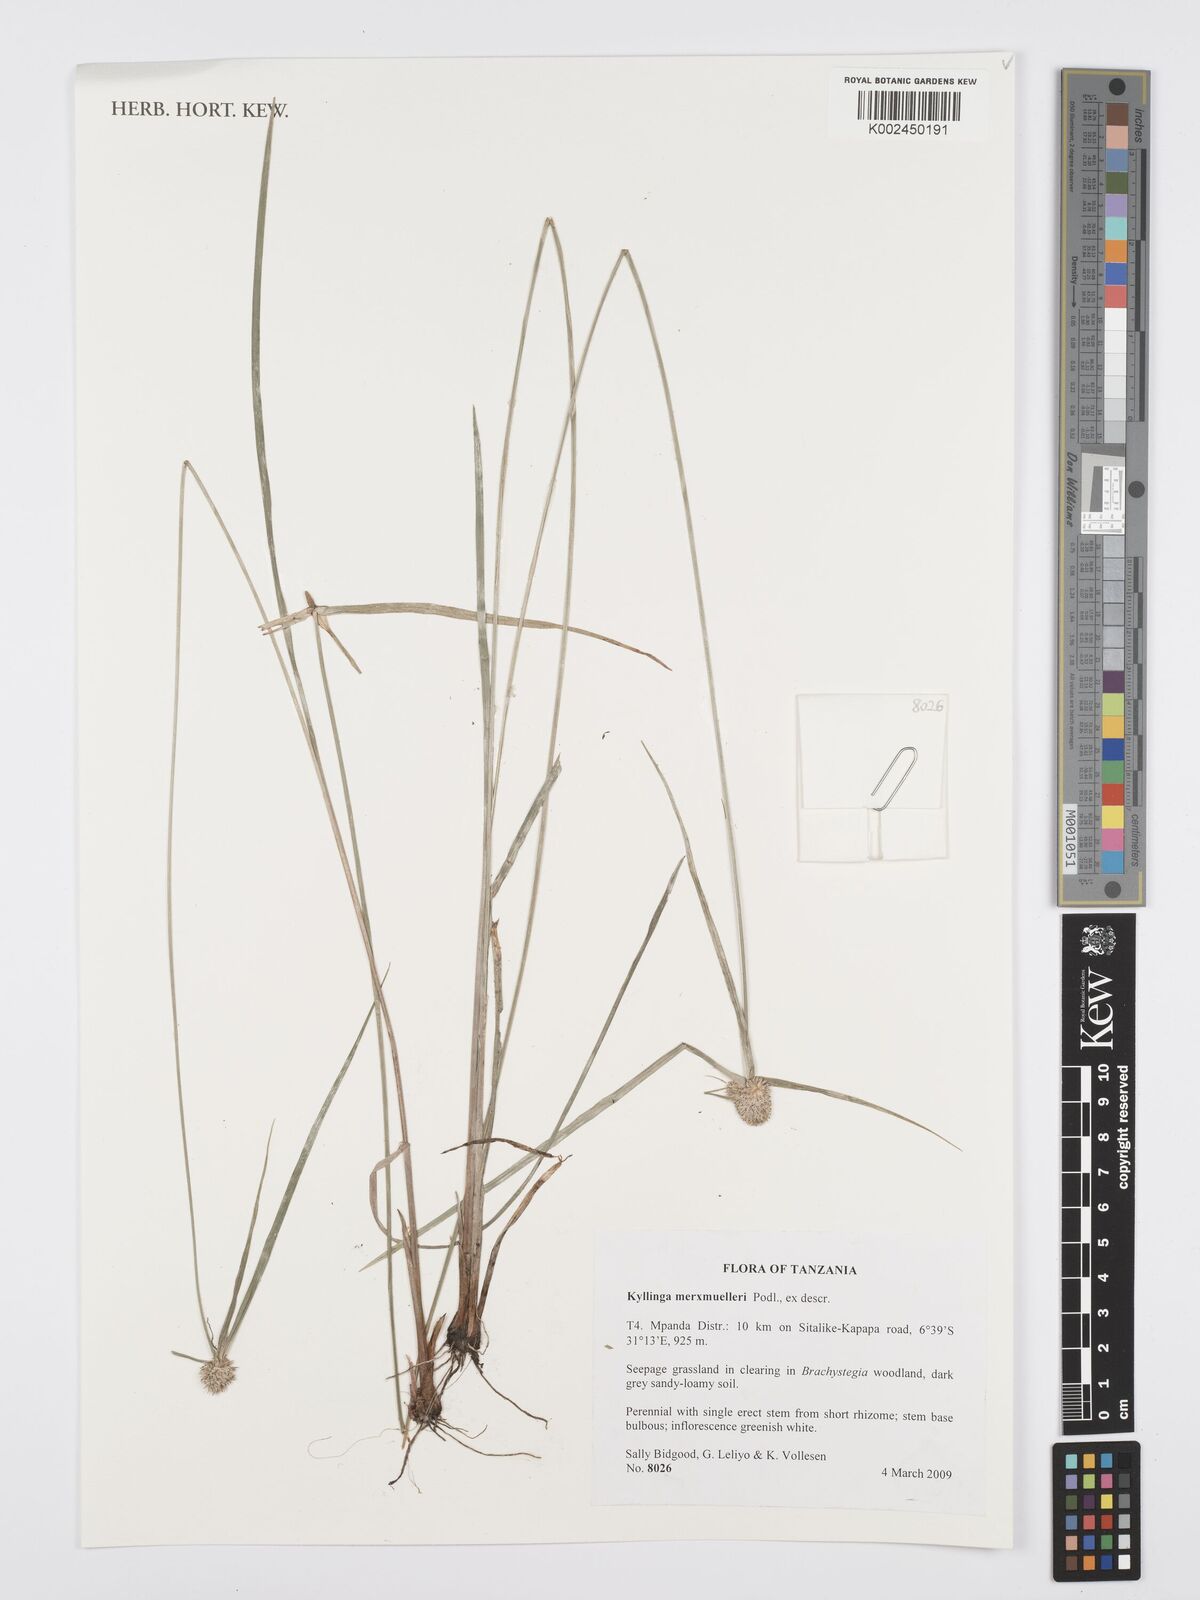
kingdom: Plantae
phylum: Tracheophyta
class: Liliopsida
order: Poales
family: Cyperaceae
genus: Cyperus
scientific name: Cyperus albiceps
